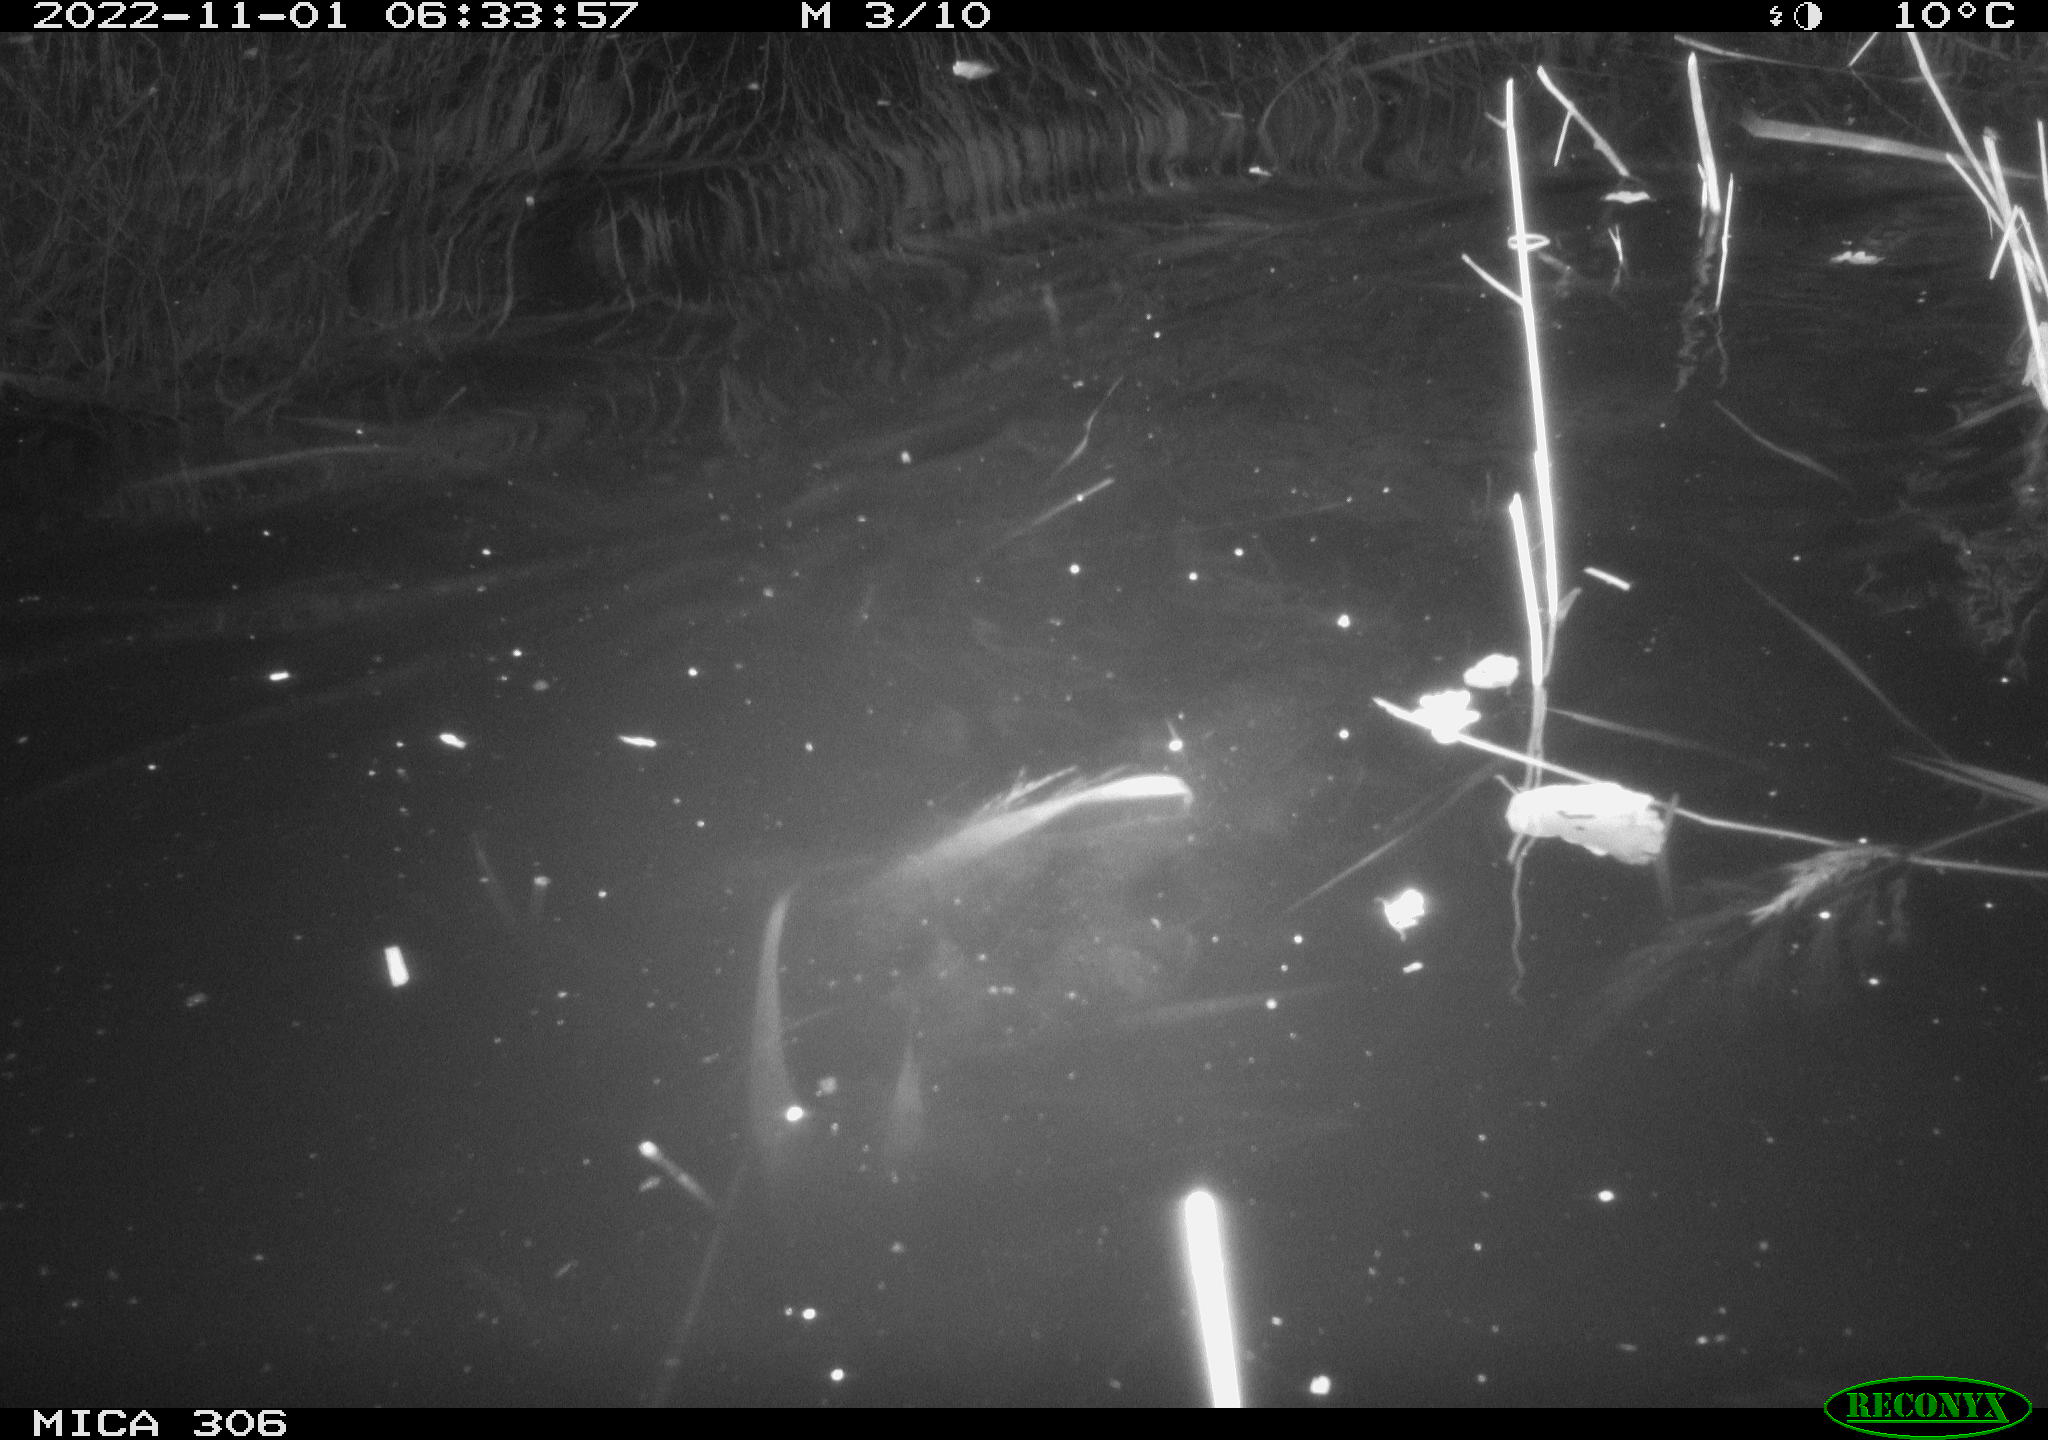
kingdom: Animalia
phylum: Chordata
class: Mammalia
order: Rodentia
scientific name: Rodentia
